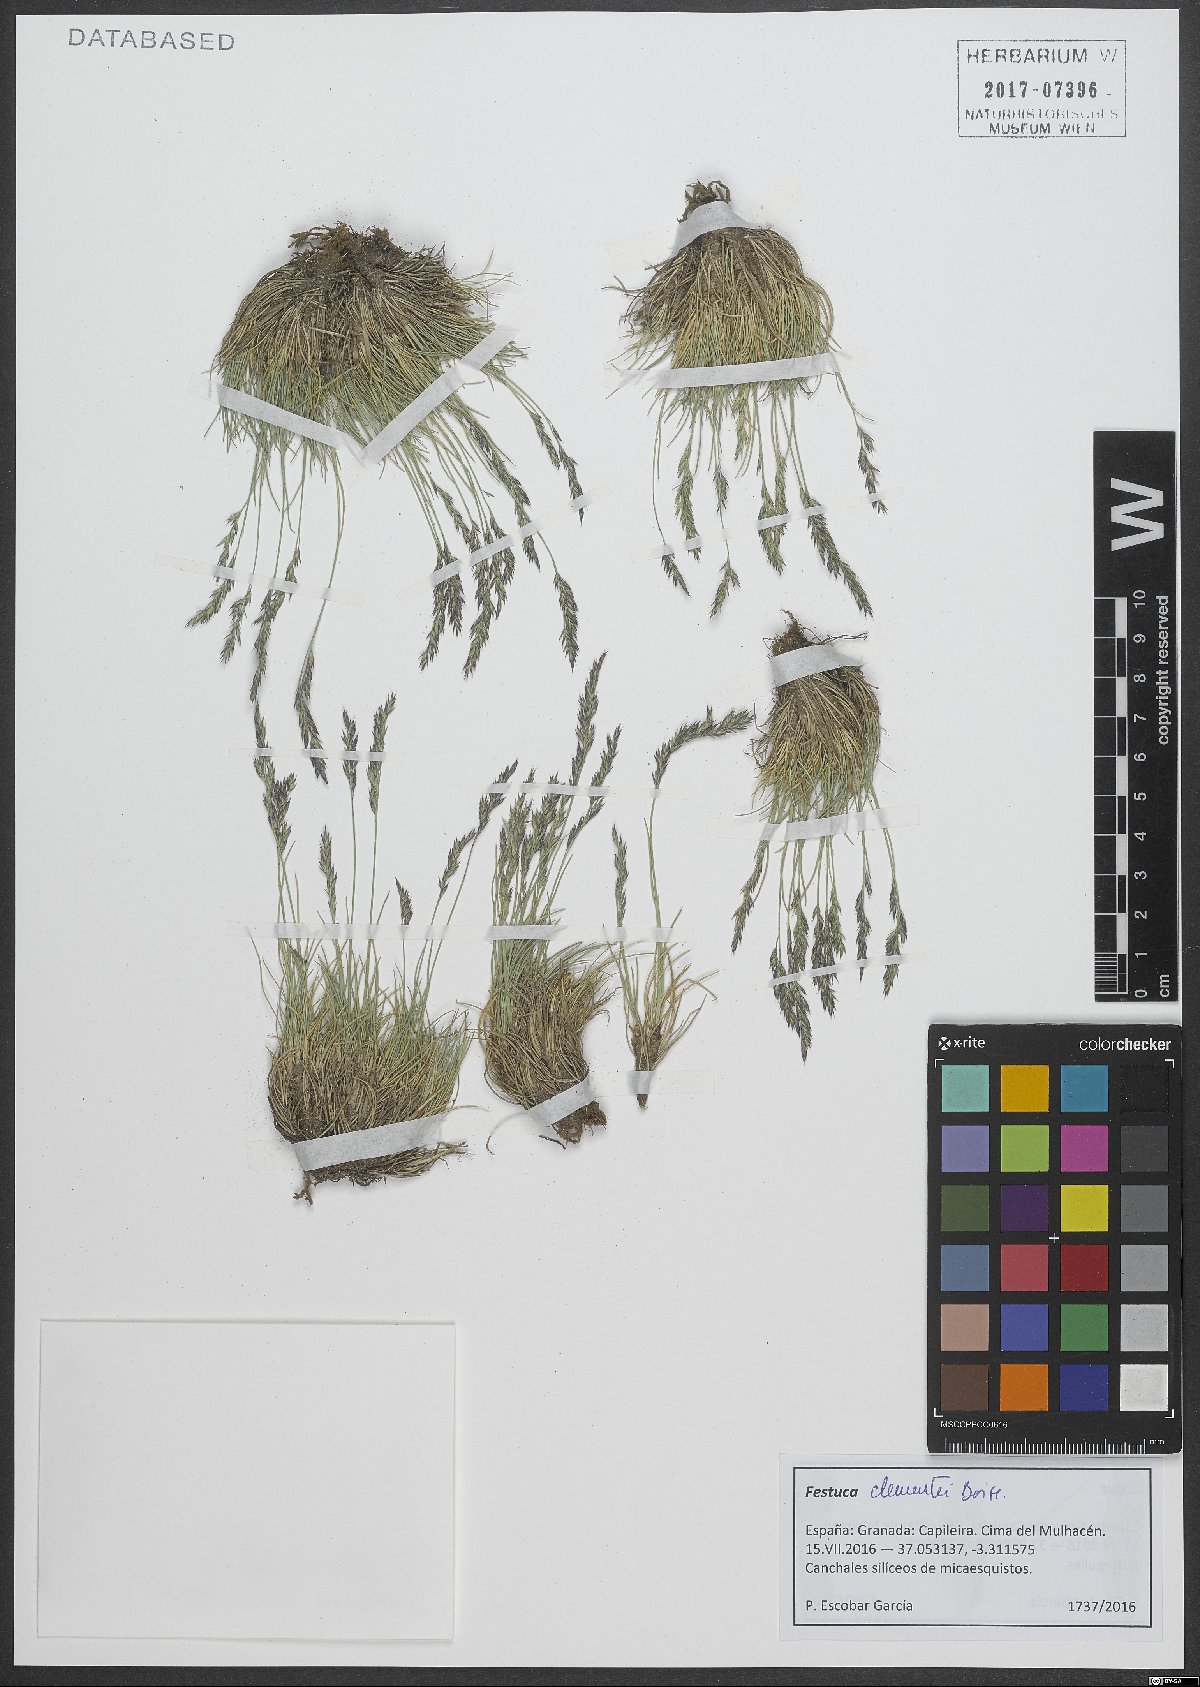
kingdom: Plantae
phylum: Tracheophyta
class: Liliopsida
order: Poales
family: Poaceae
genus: Festuca
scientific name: Festuca clementei
